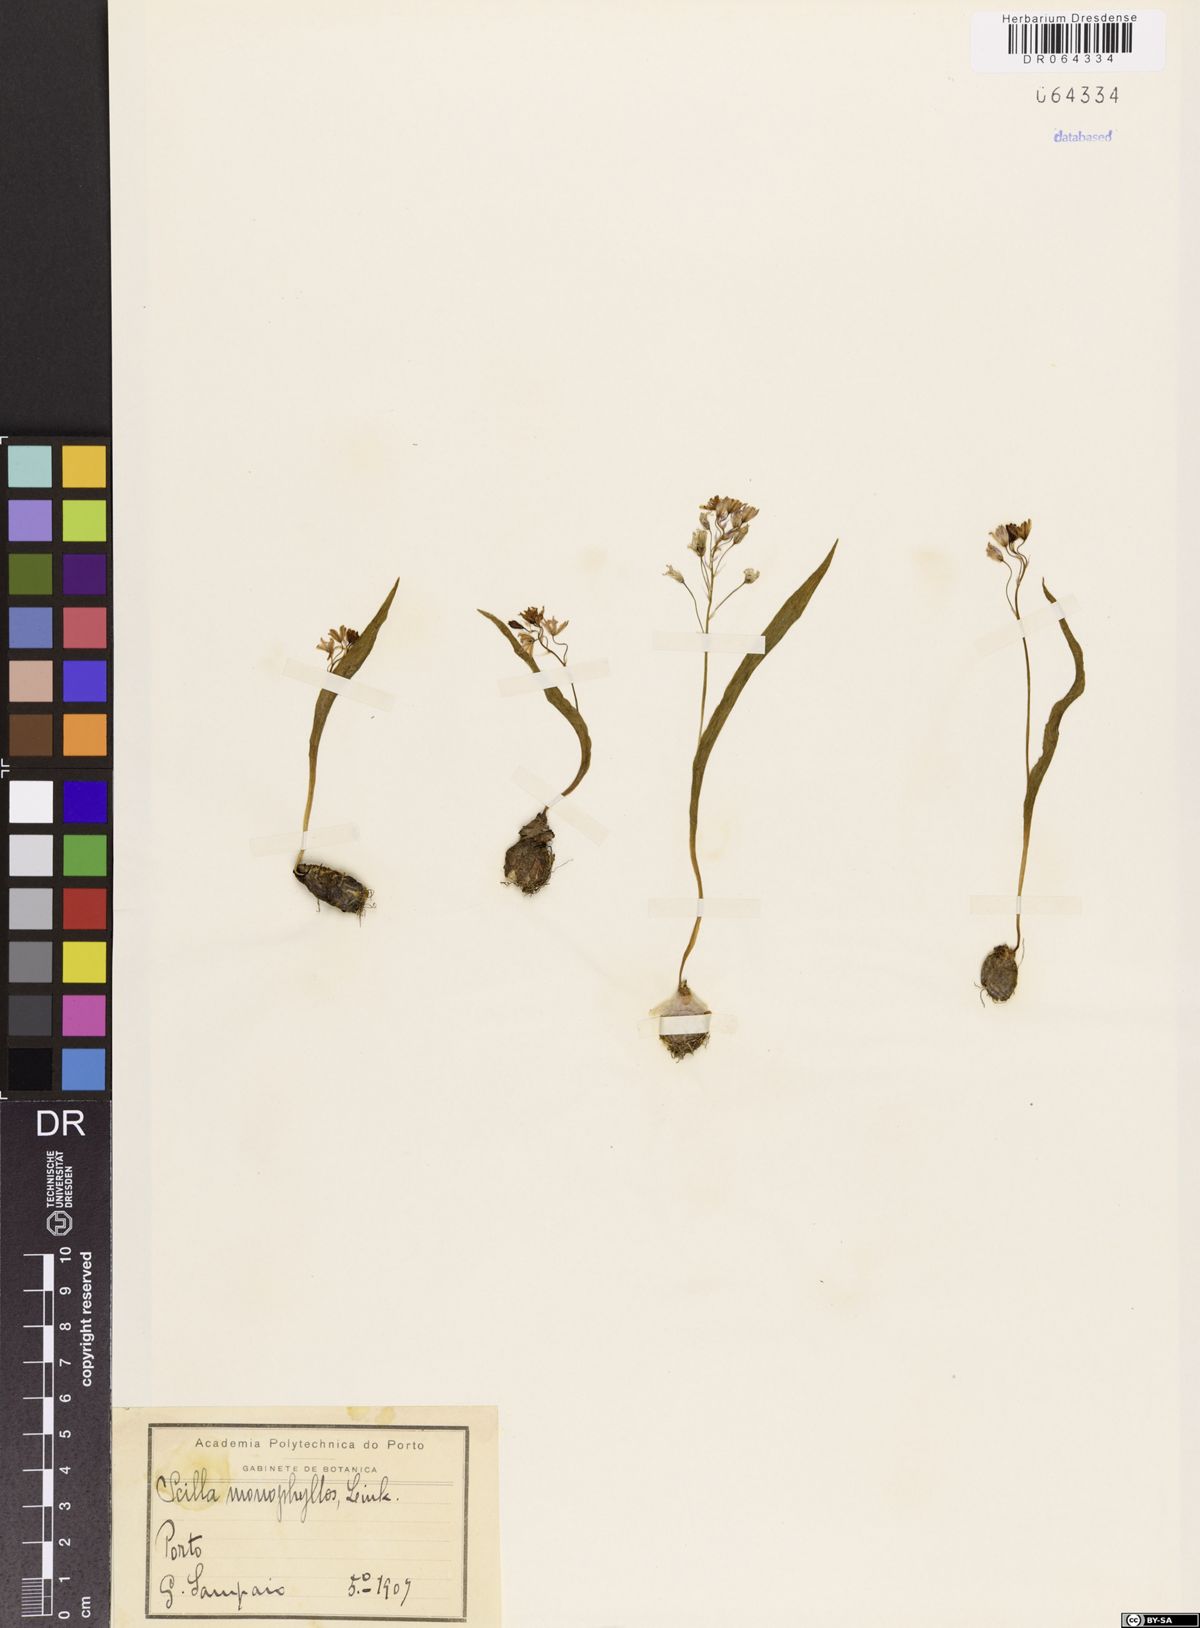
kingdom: Plantae
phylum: Tracheophyta
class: Liliopsida
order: Asparagales
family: Asparagaceae
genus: Scilla
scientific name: Scilla monophyllos
